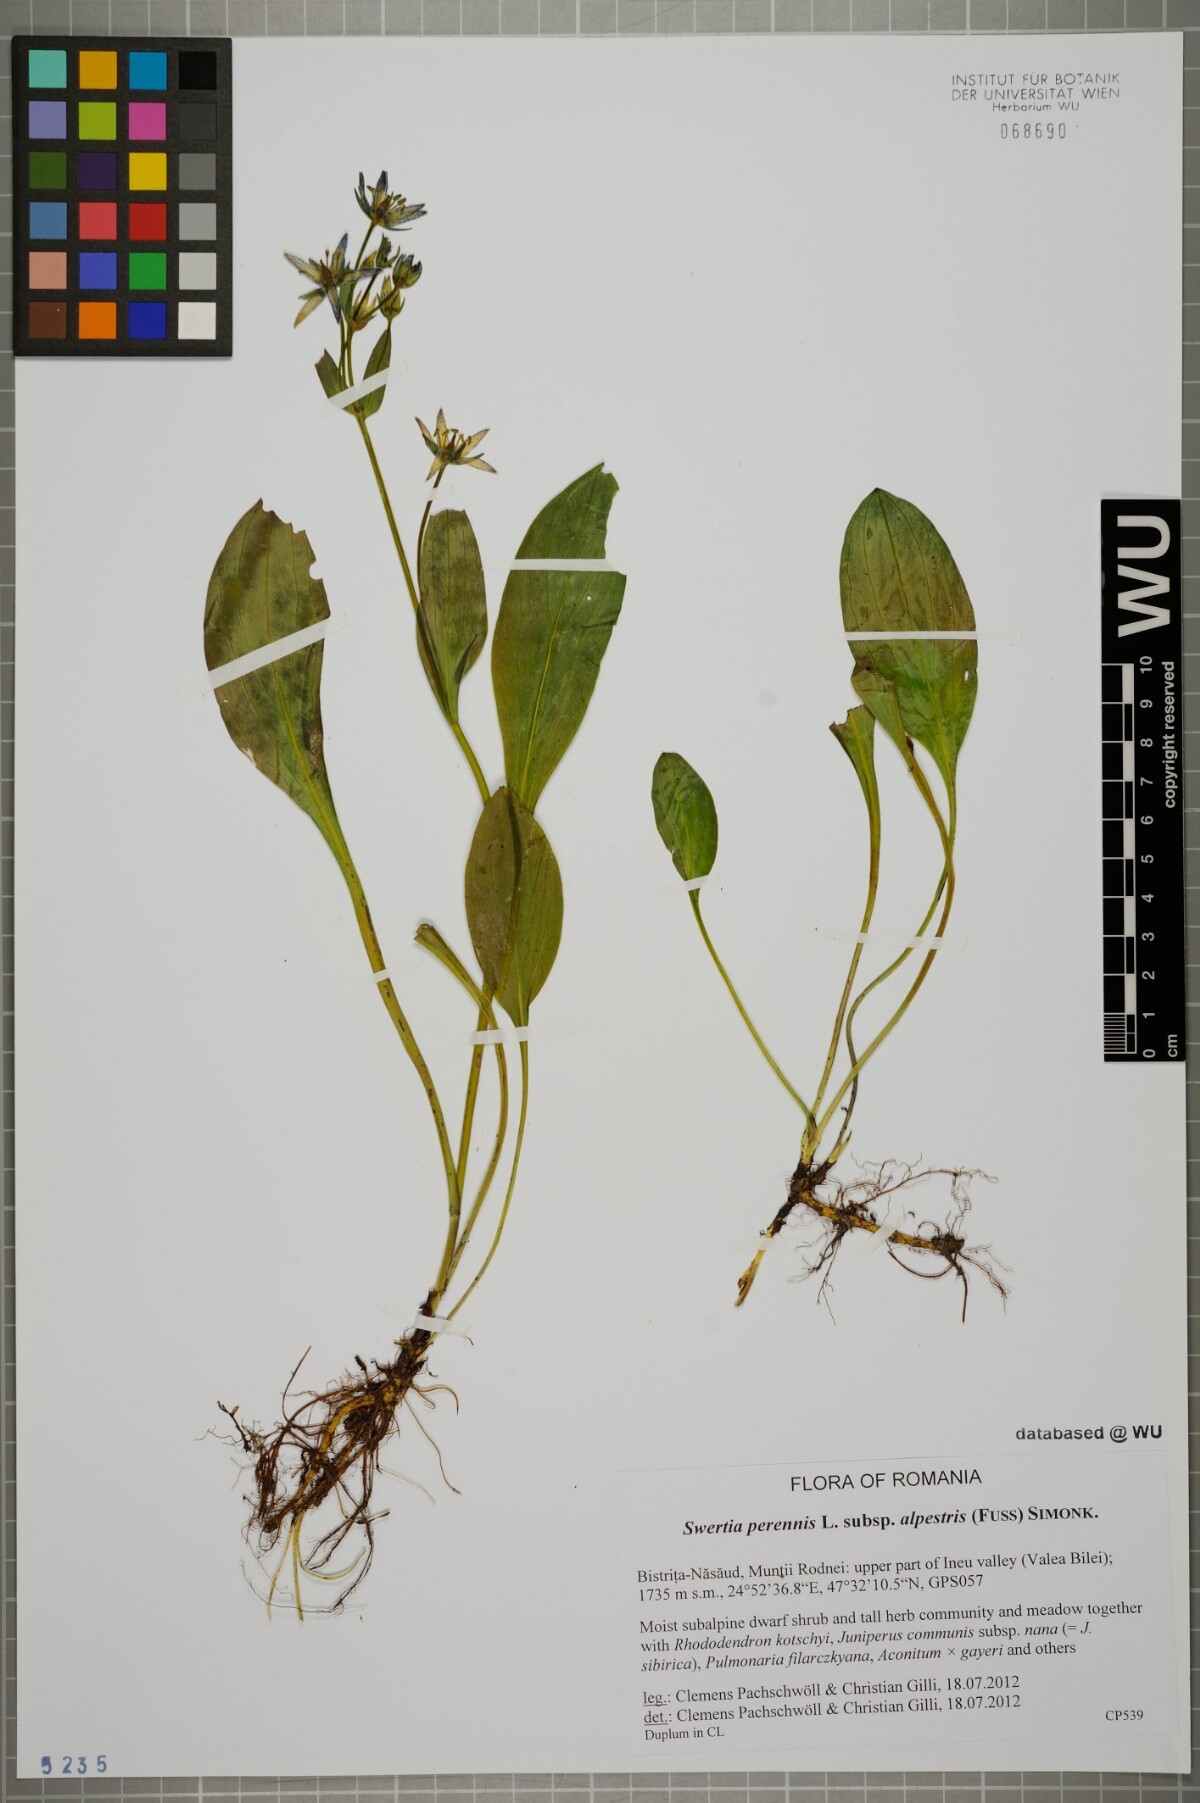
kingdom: Plantae
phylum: Tracheophyta
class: Magnoliopsida
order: Gentianales
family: Gentianaceae
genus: Swertia
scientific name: Swertia perennis
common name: Alpine bog swertia
